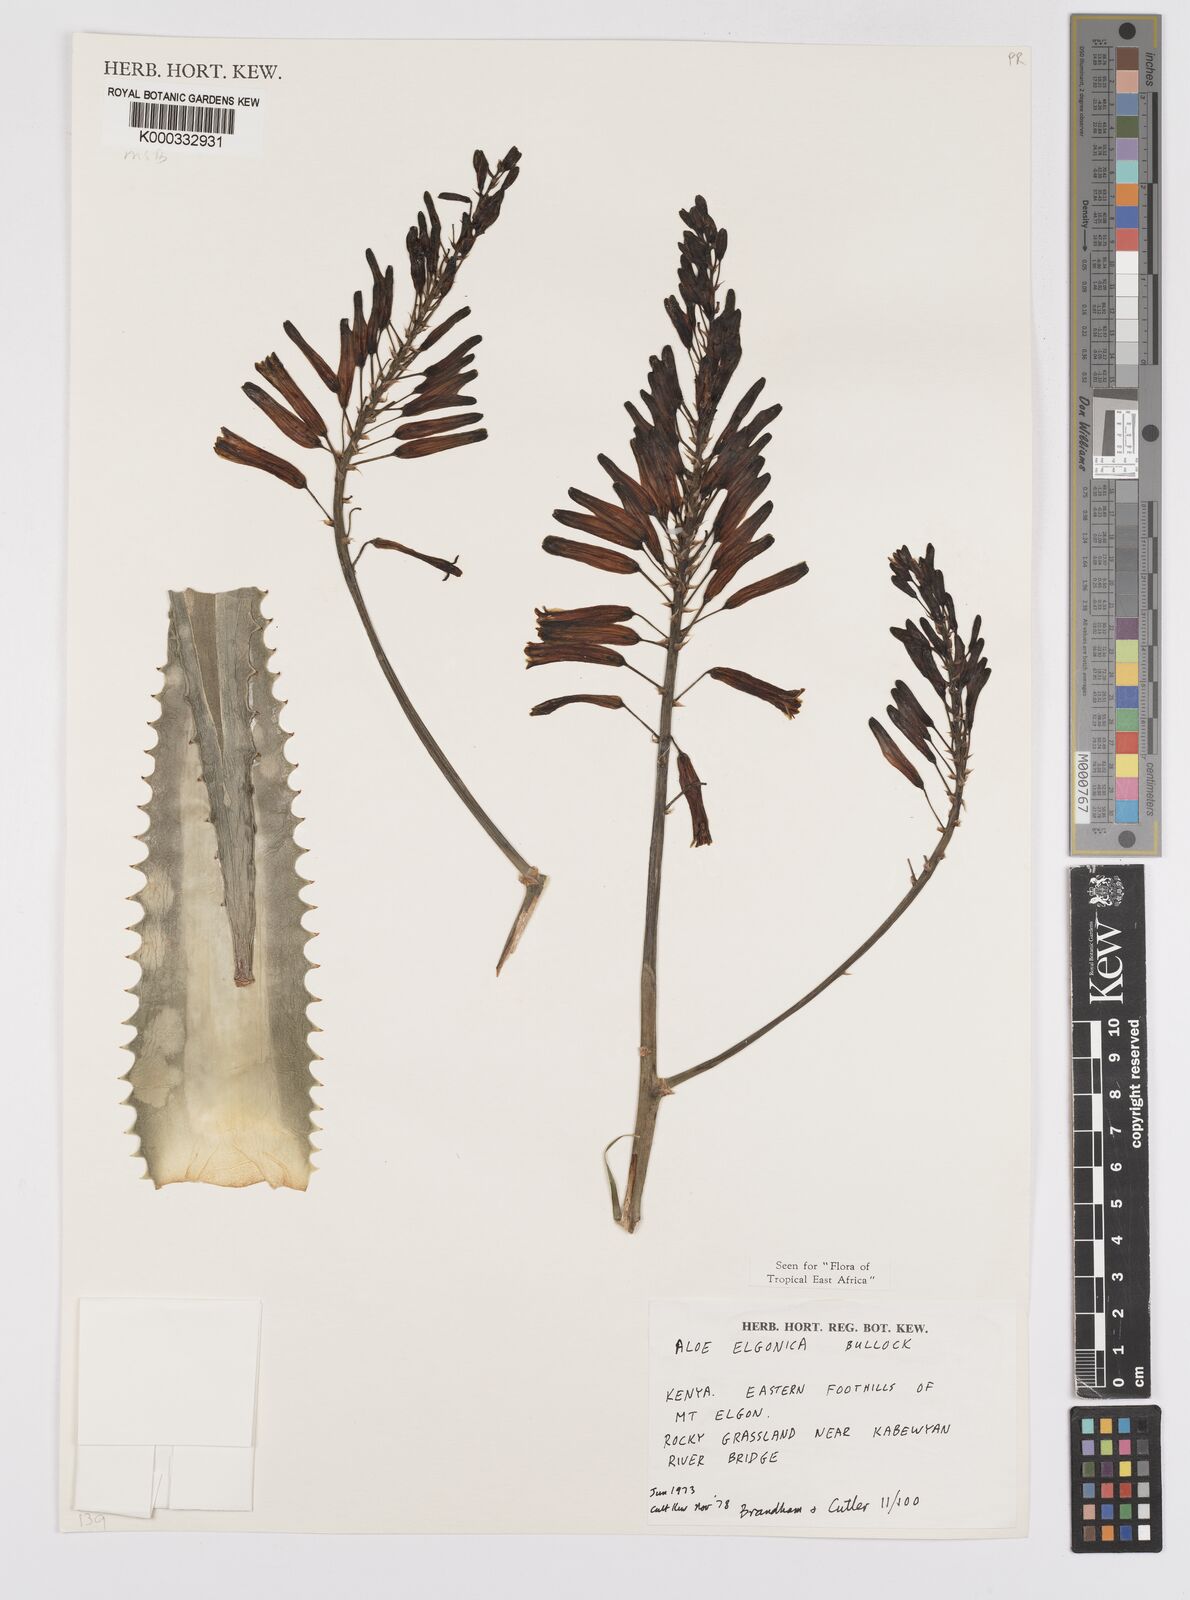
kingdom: Plantae
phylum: Tracheophyta
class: Liliopsida
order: Asparagales
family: Asphodelaceae
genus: Aloe
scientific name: Aloe elgonica
